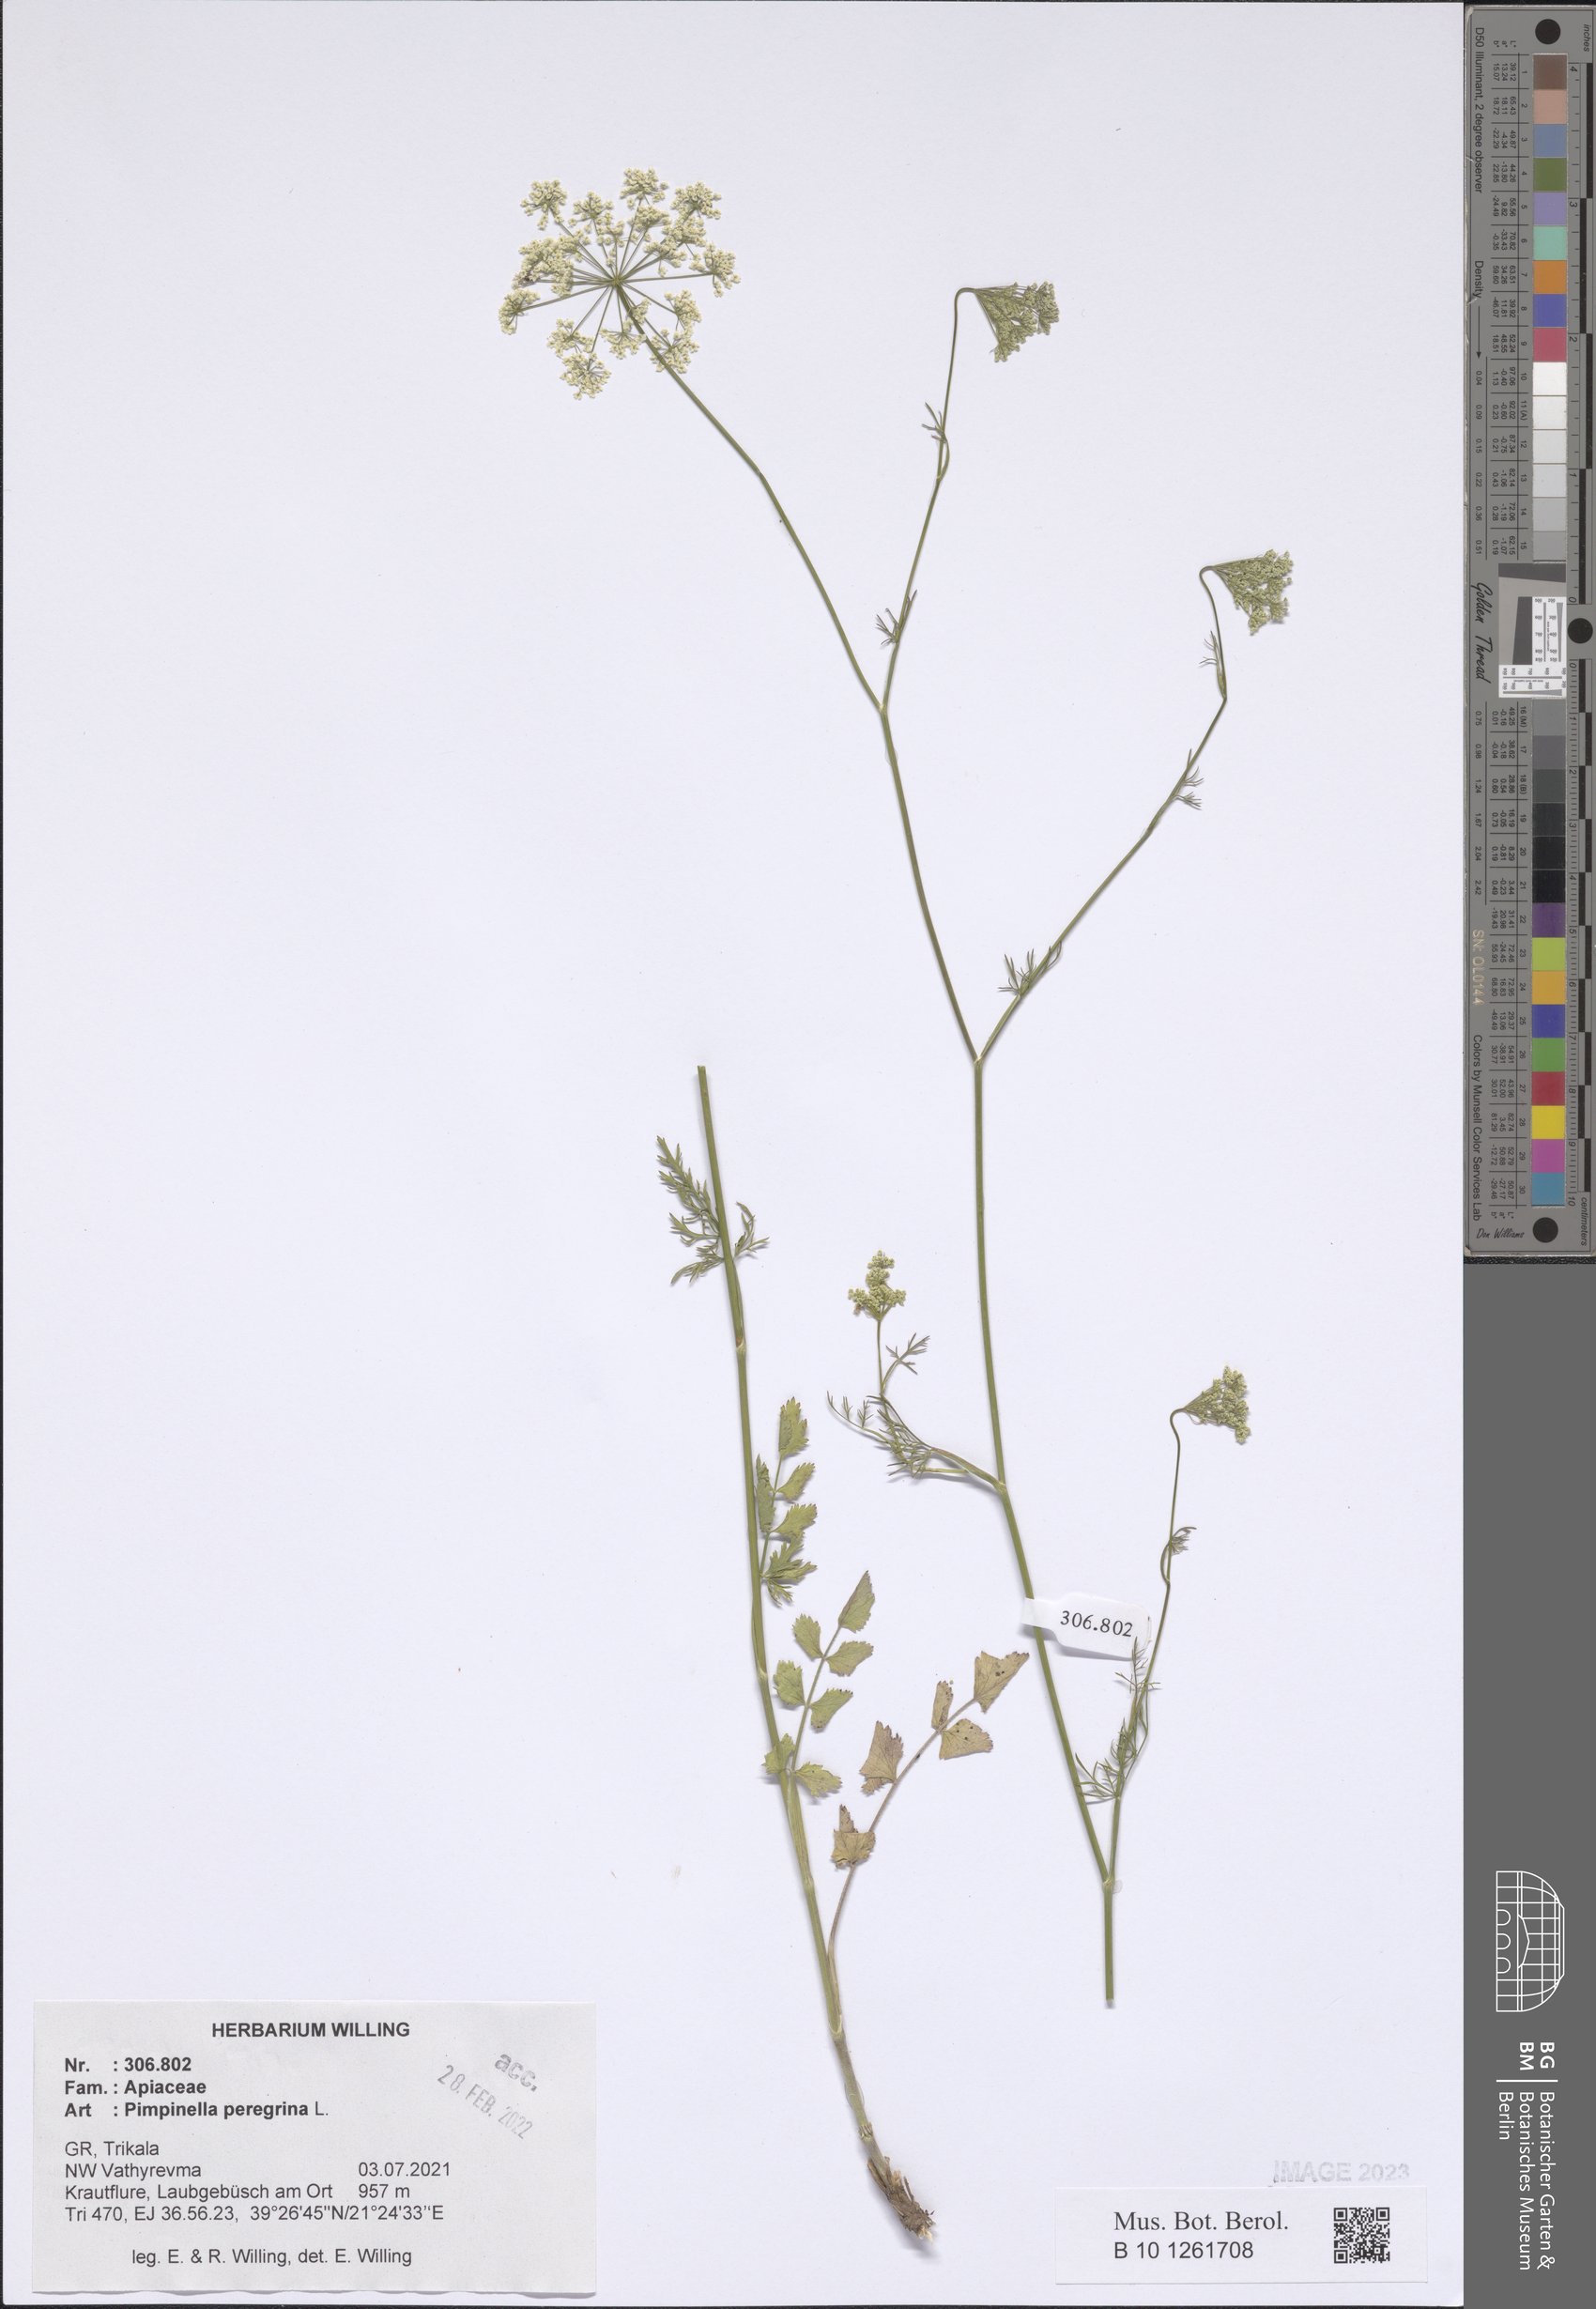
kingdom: Plantae
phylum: Tracheophyta
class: Magnoliopsida
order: Apiales
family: Apiaceae
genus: Pimpinella
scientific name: Pimpinella peregrina
